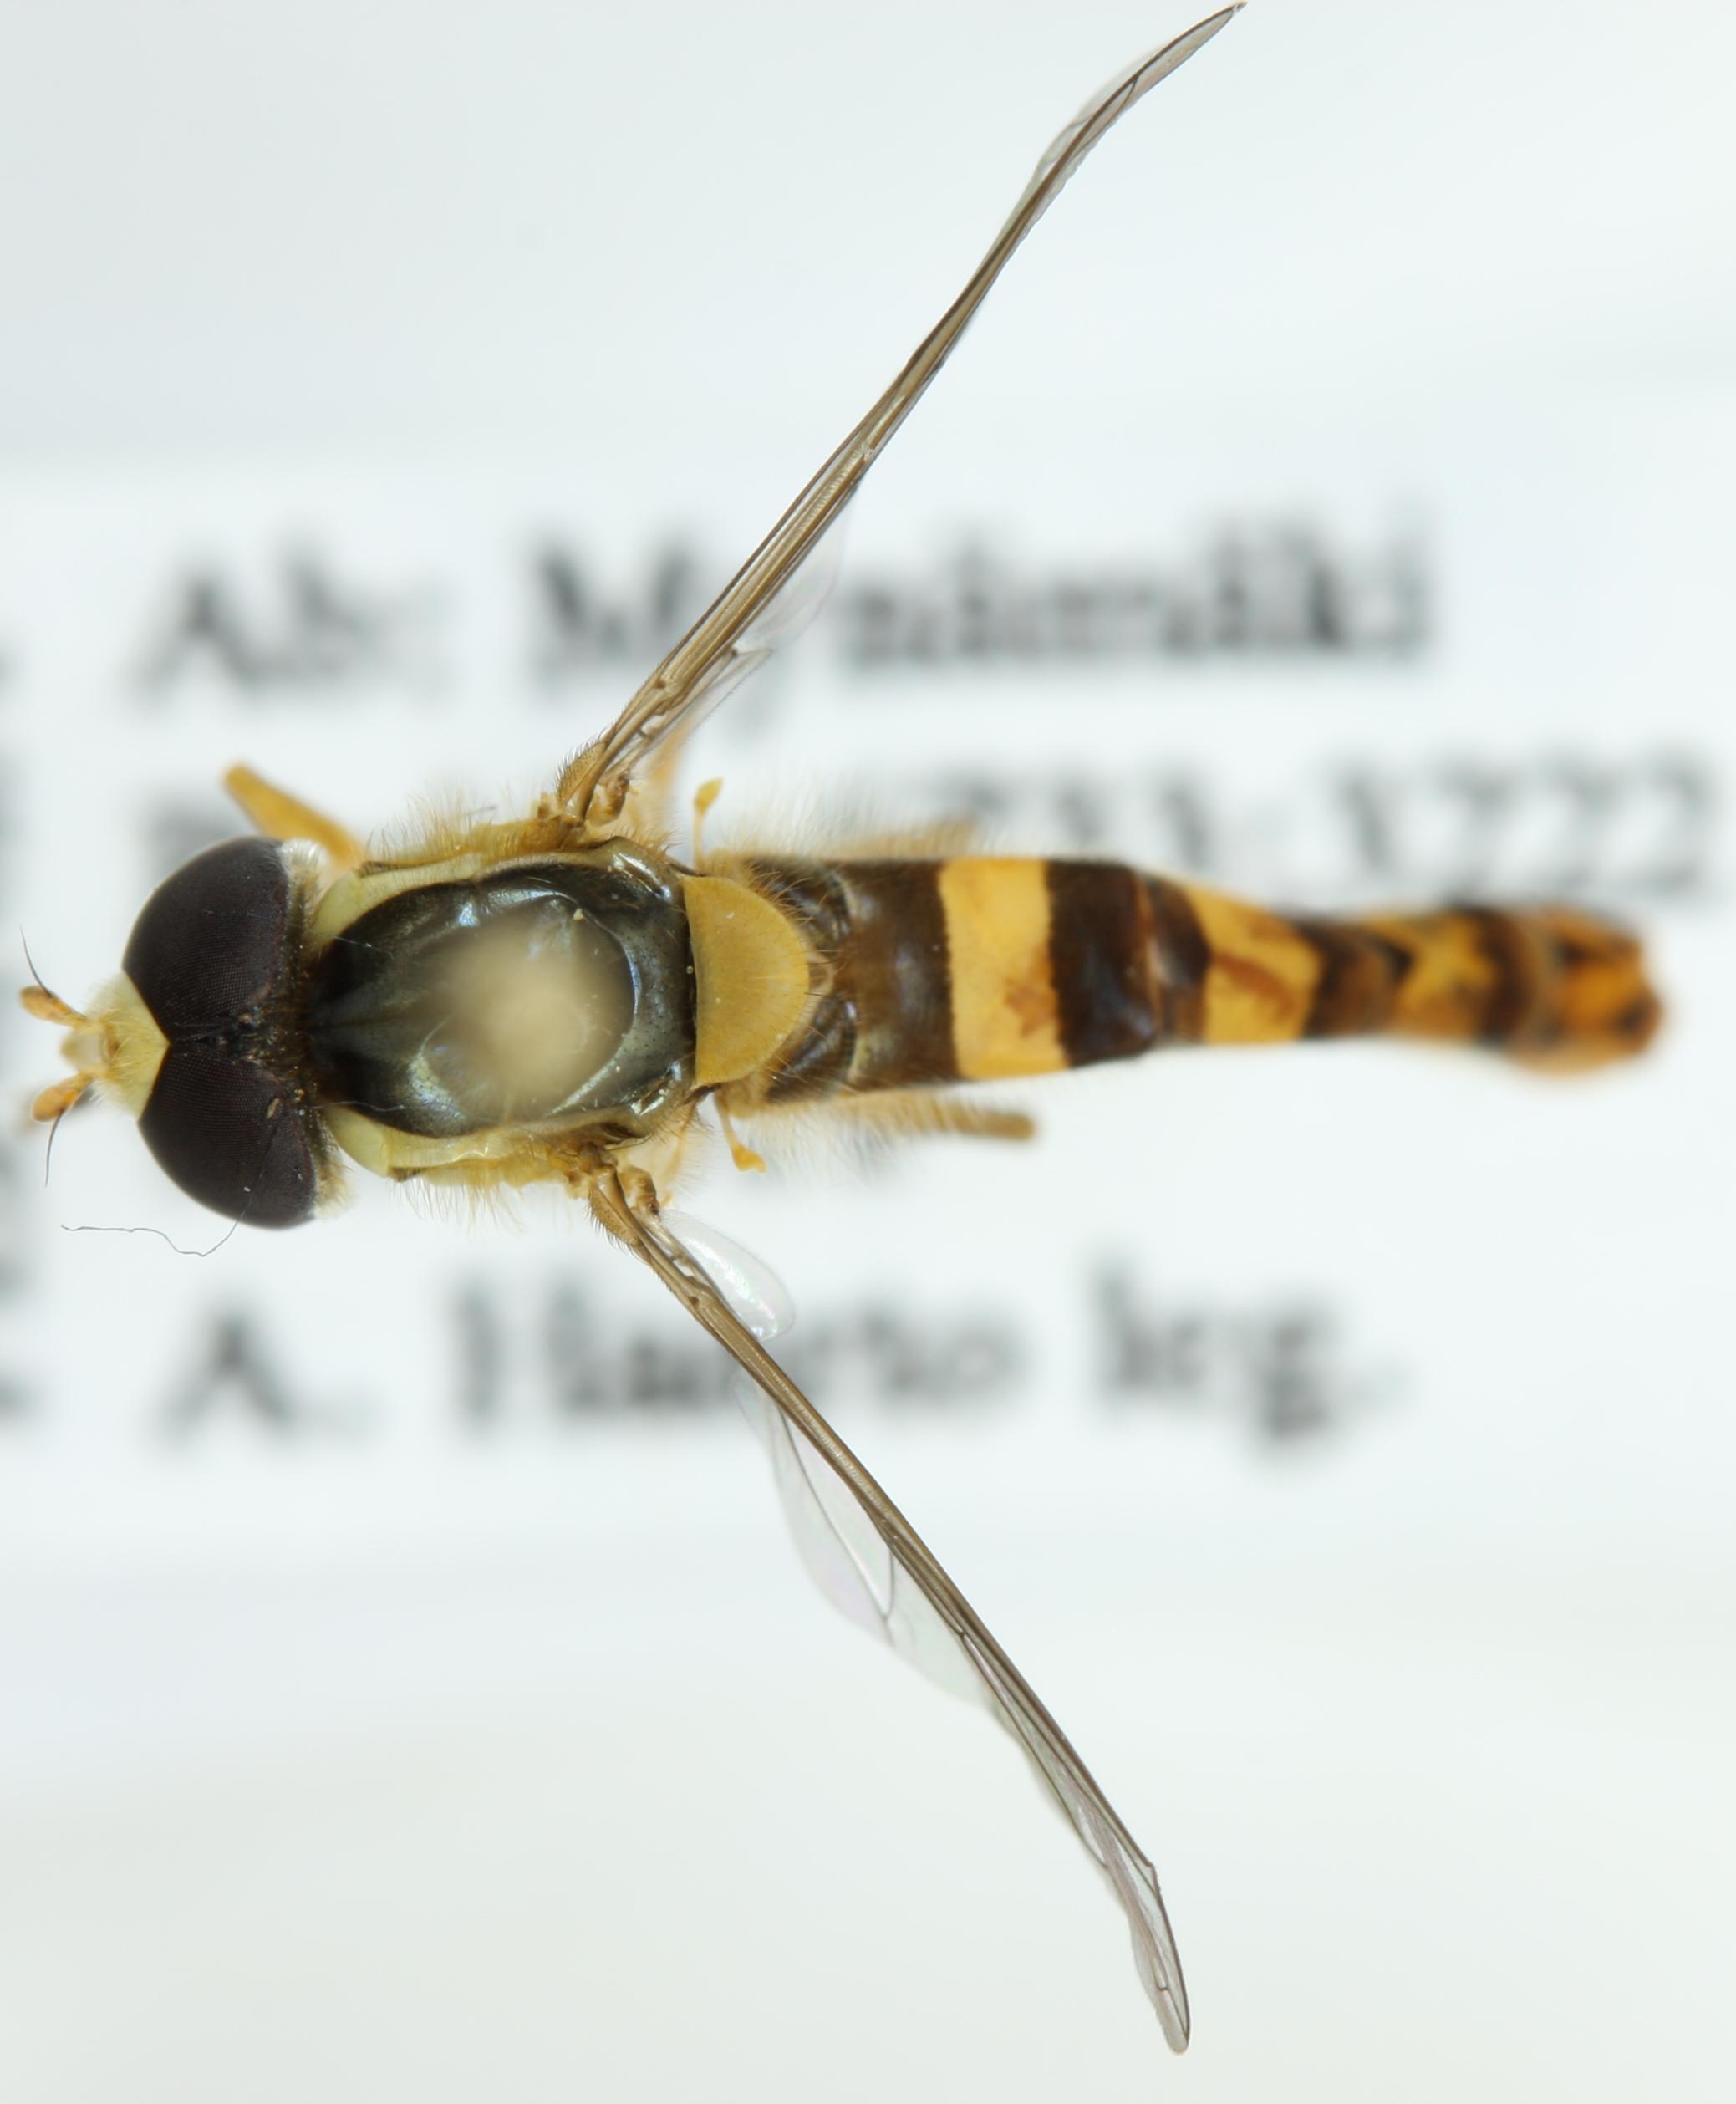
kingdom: Animalia
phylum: Arthropoda
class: Insecta
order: Diptera
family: Syrphidae
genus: Sphaerophoria
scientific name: Sphaerophoria scripta
